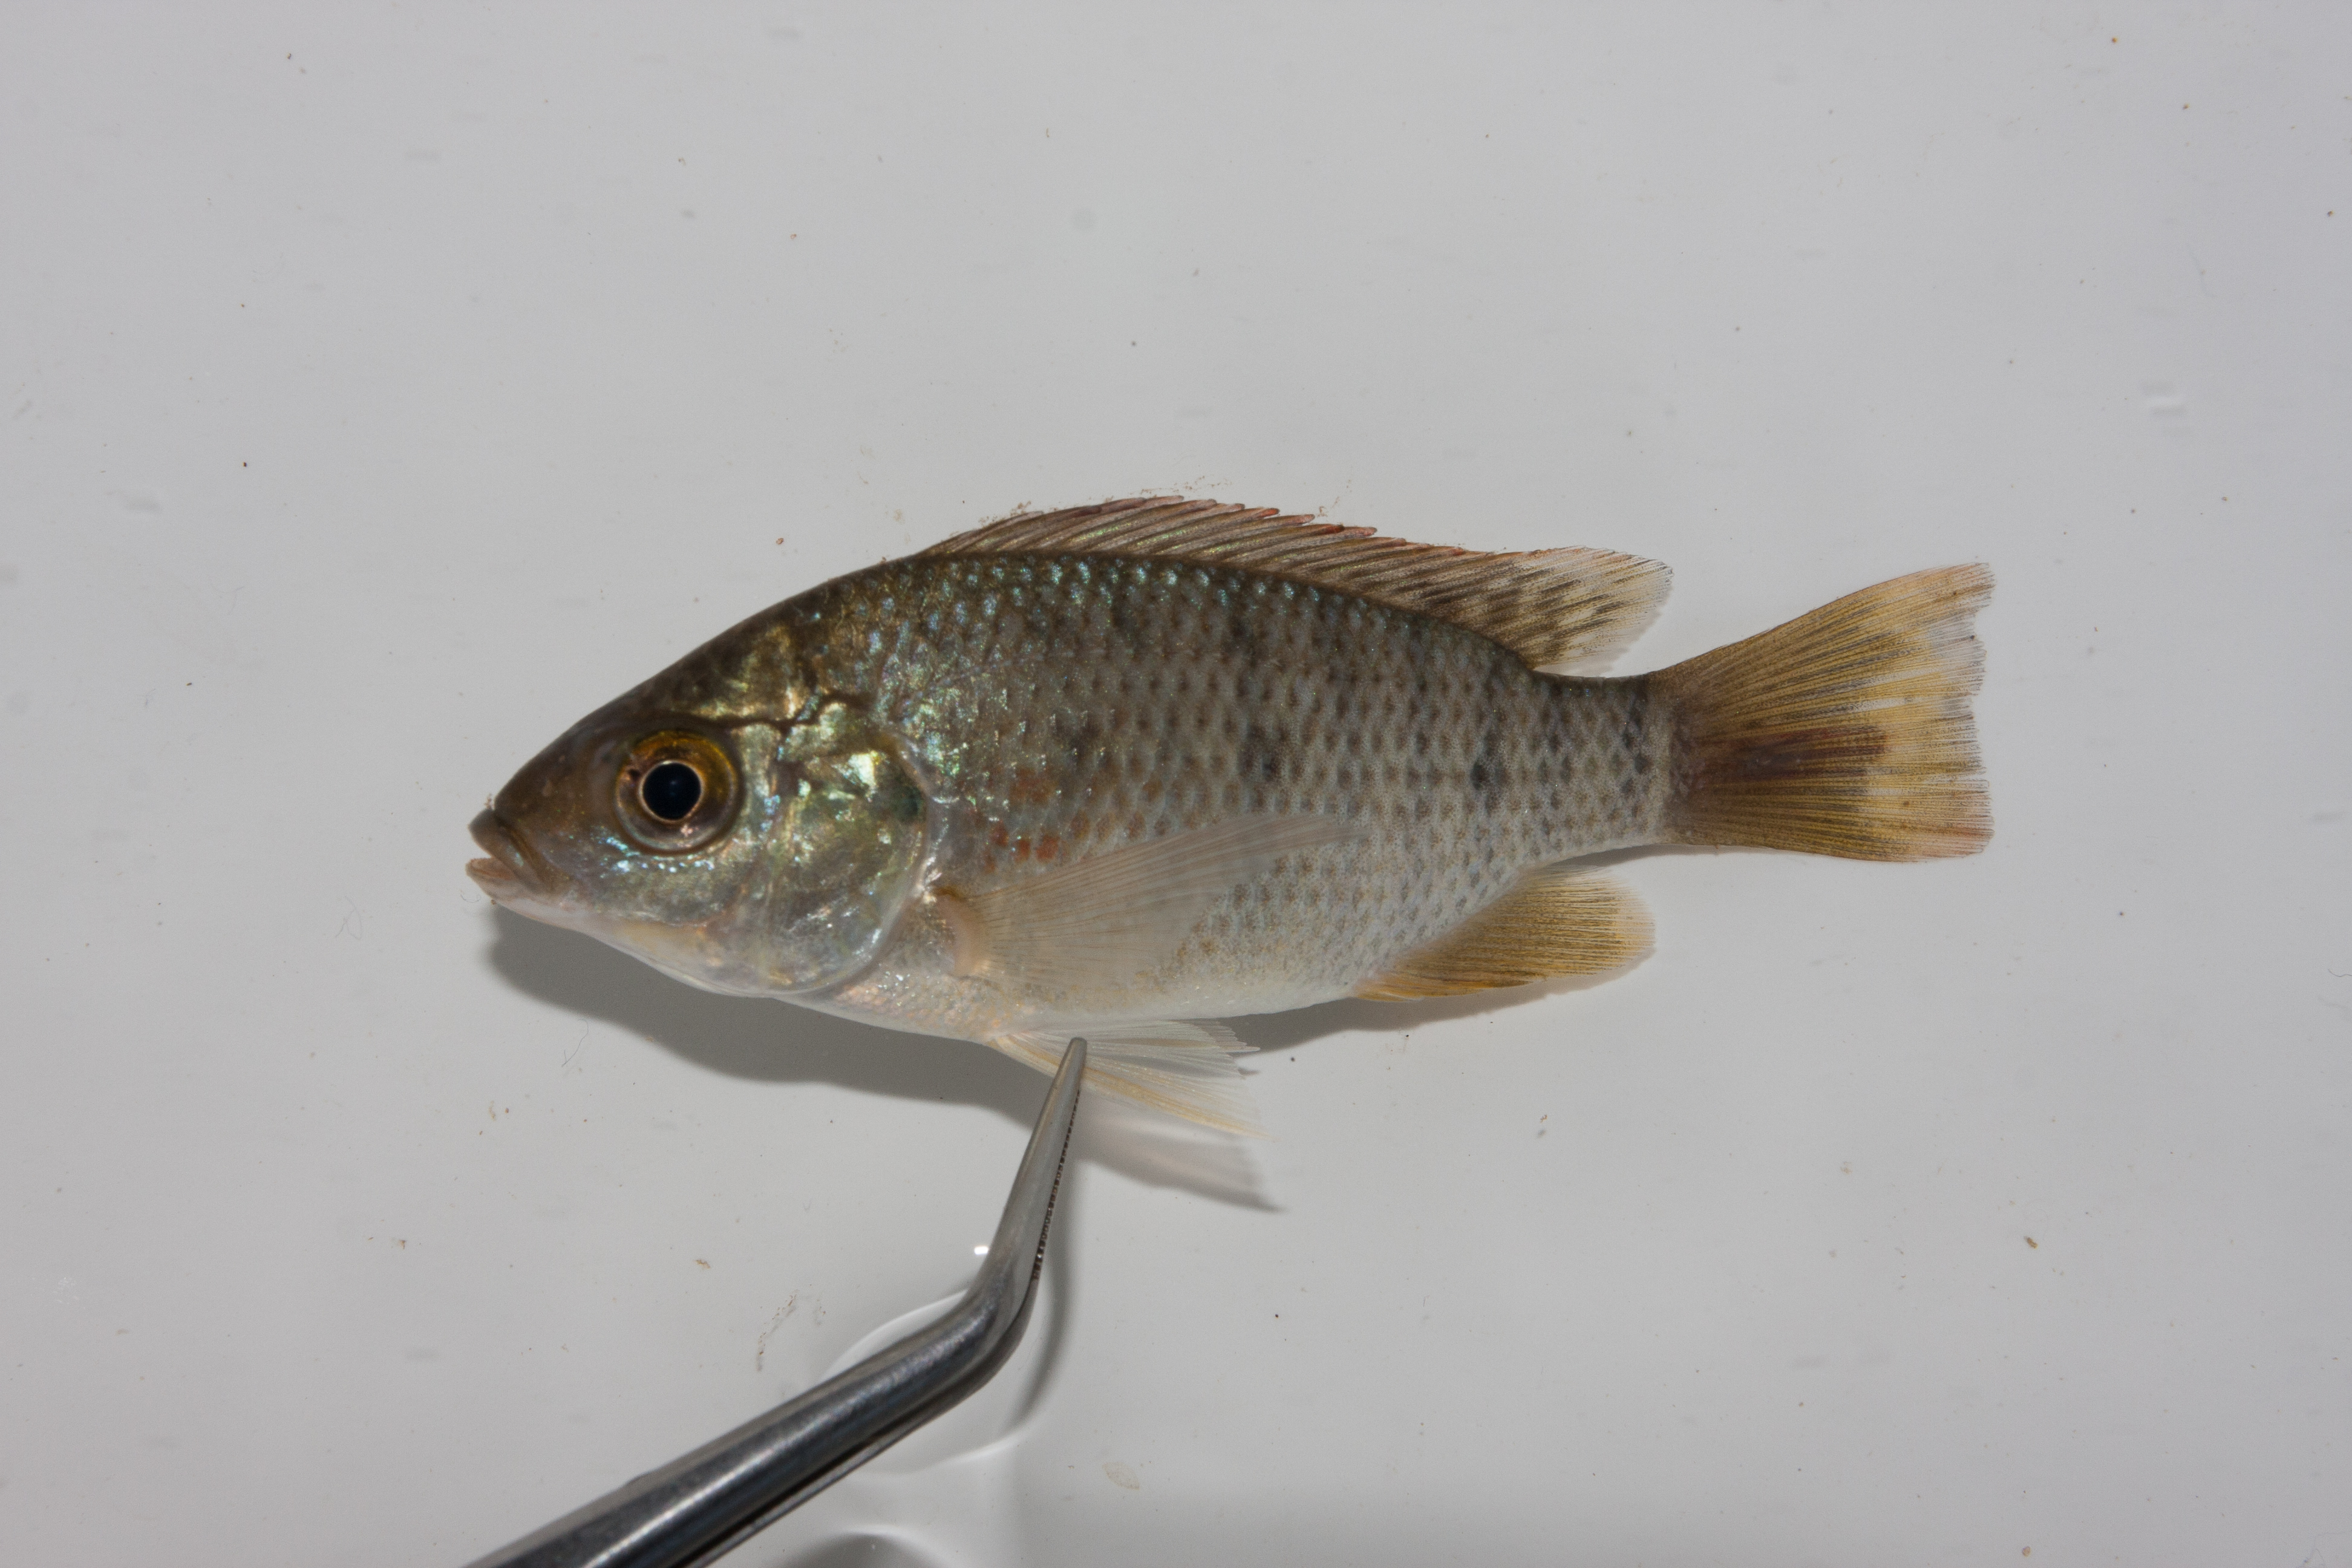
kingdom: Animalia
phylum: Chordata
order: Perciformes
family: Cichlidae
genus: Oreochromis
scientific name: Oreochromis mossambicus
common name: Mozambique tilapia
